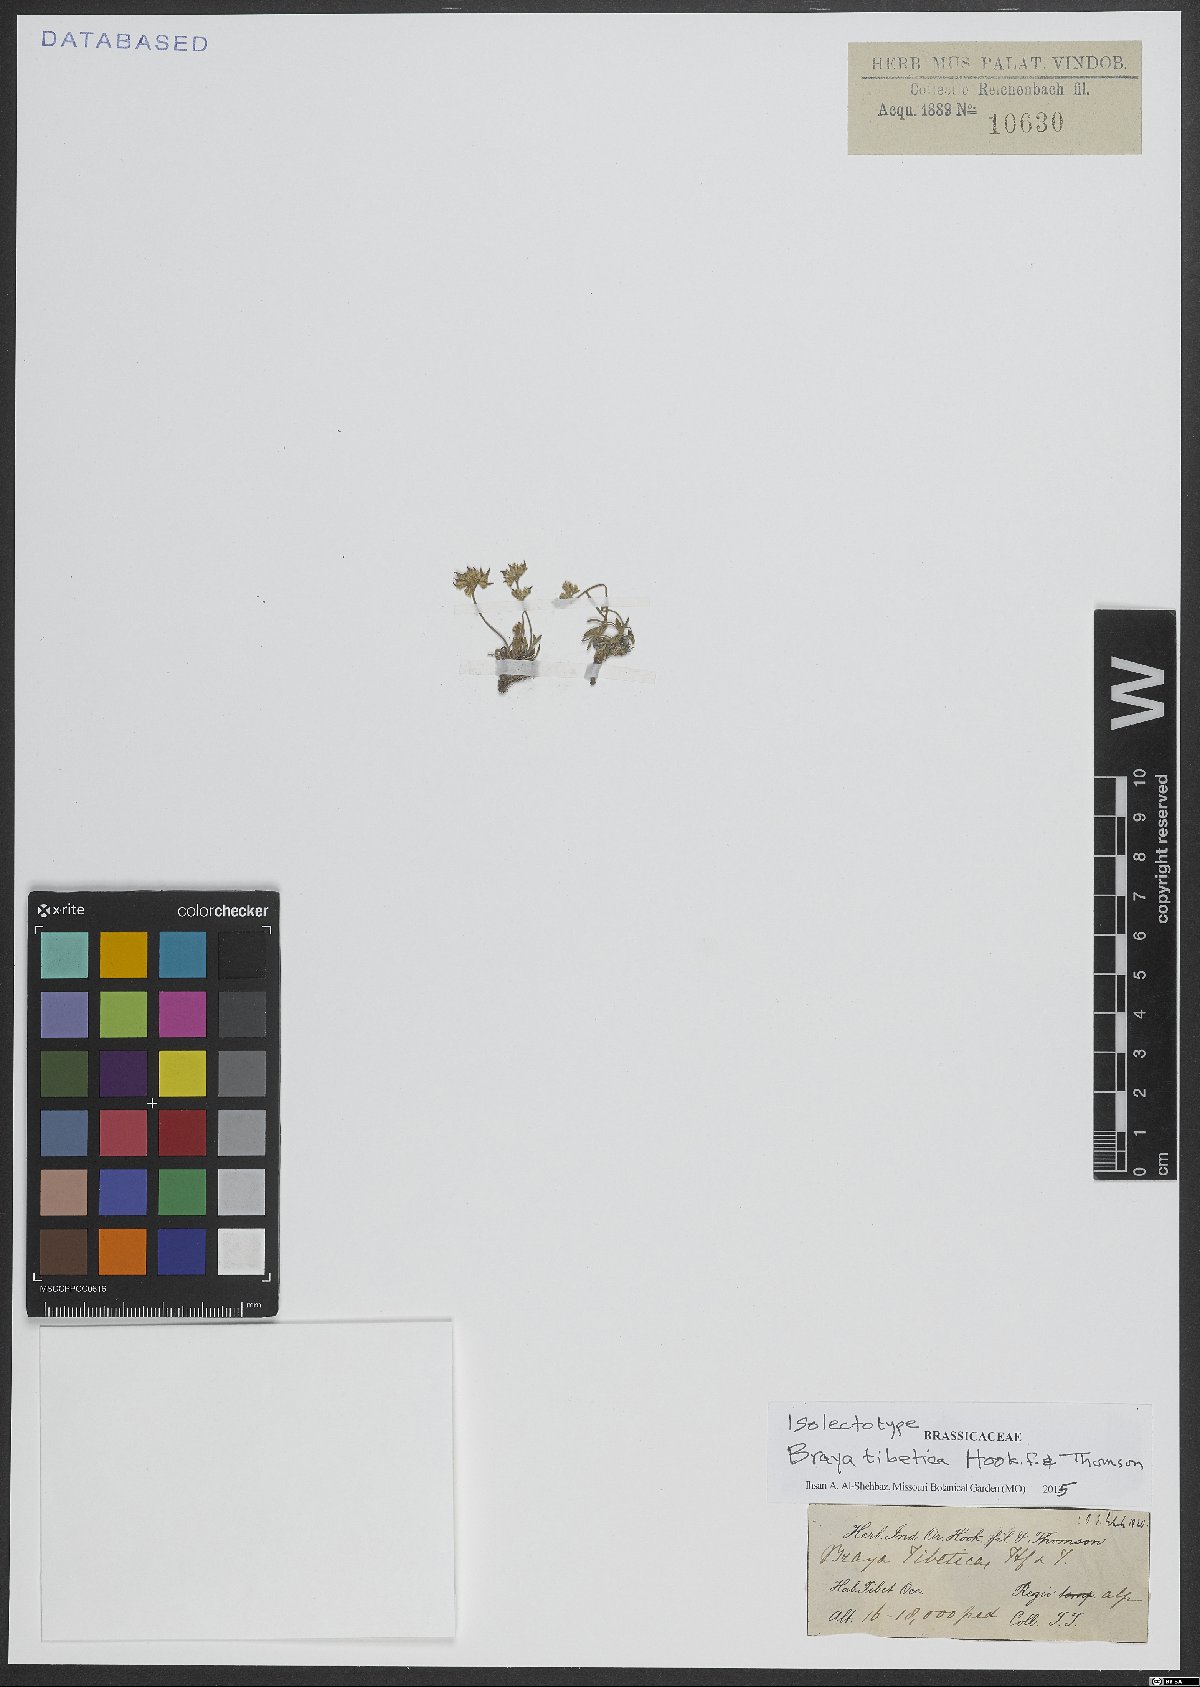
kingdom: Plantae
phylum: Tracheophyta
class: Magnoliopsida
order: Brassicales
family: Brassicaceae
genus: Braya
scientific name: Braya tibetica
